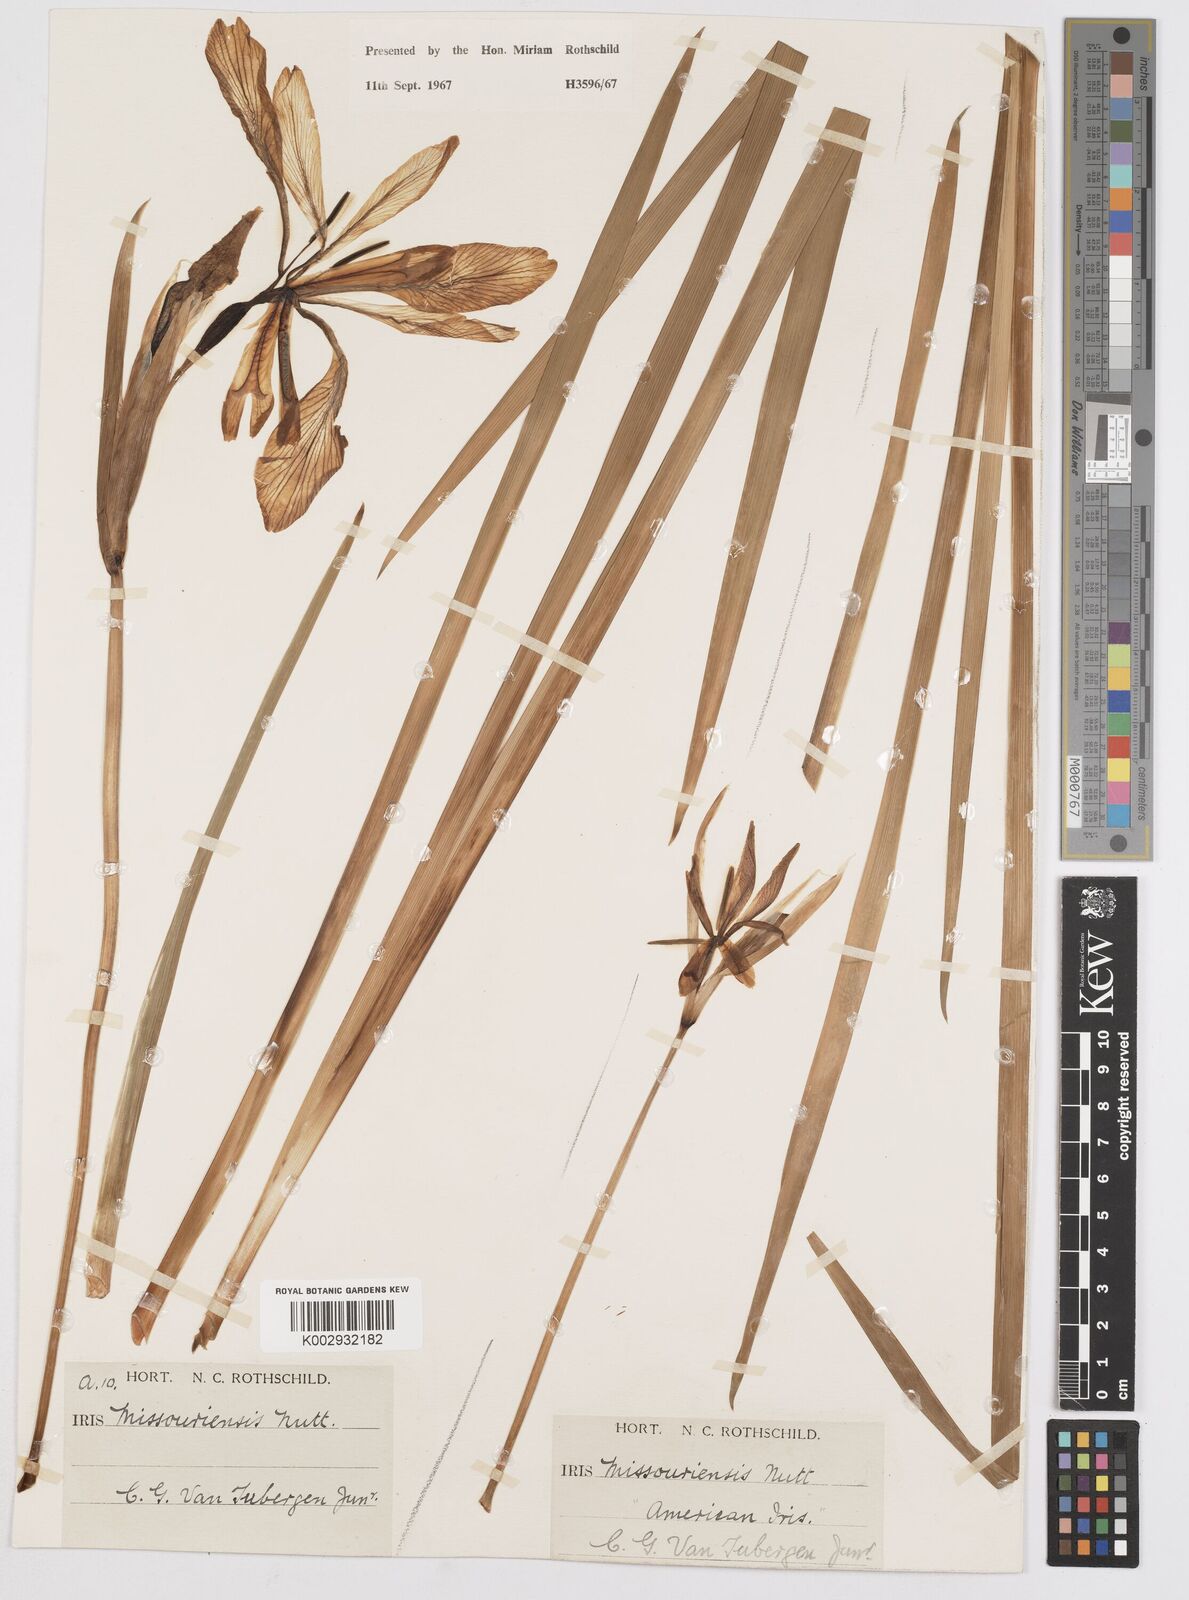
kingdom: Plantae
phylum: Tracheophyta
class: Liliopsida
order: Asparagales
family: Iridaceae
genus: Iris
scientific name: Iris missouriensis
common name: Rocky mountain iris
